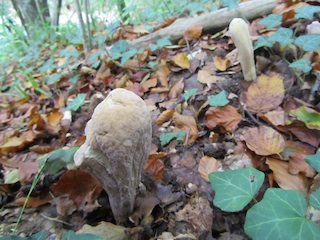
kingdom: Fungi
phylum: Basidiomycota
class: Agaricomycetes
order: Gomphales
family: Clavariadelphaceae
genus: Clavariadelphus
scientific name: Clavariadelphus pistillaris
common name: herkules-kæmpekølle
